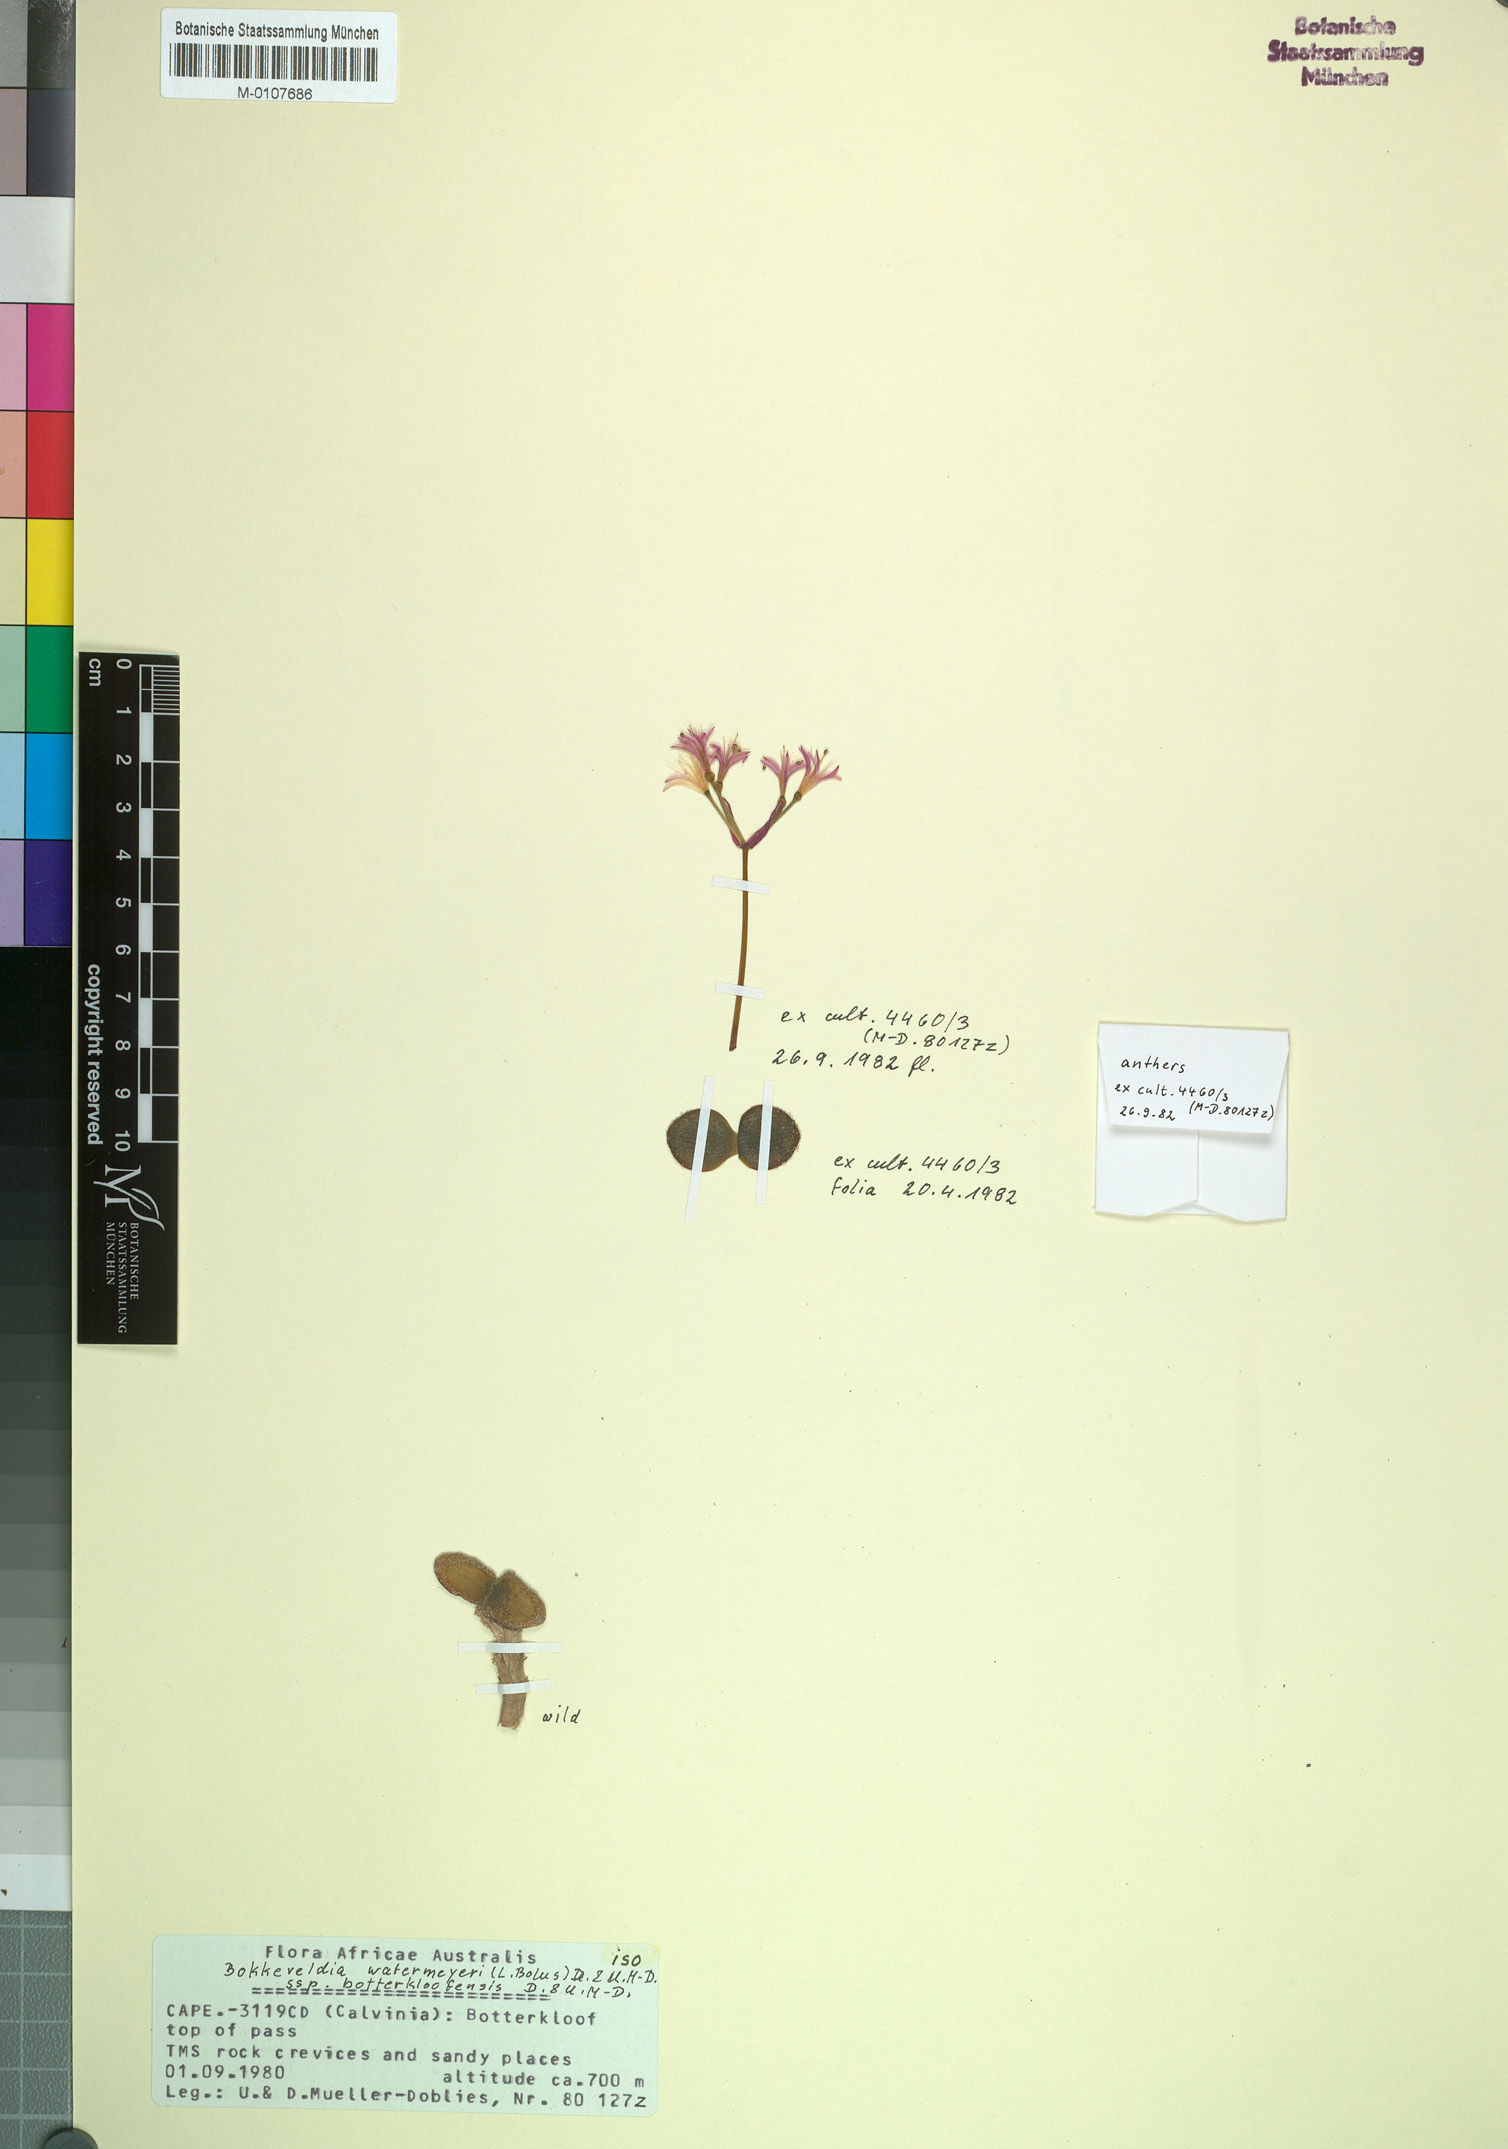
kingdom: Plantae
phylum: Tracheophyta
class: Liliopsida
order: Asparagales
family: Amaryllidaceae
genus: Strumaria
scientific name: Strumaria watermeyeri
